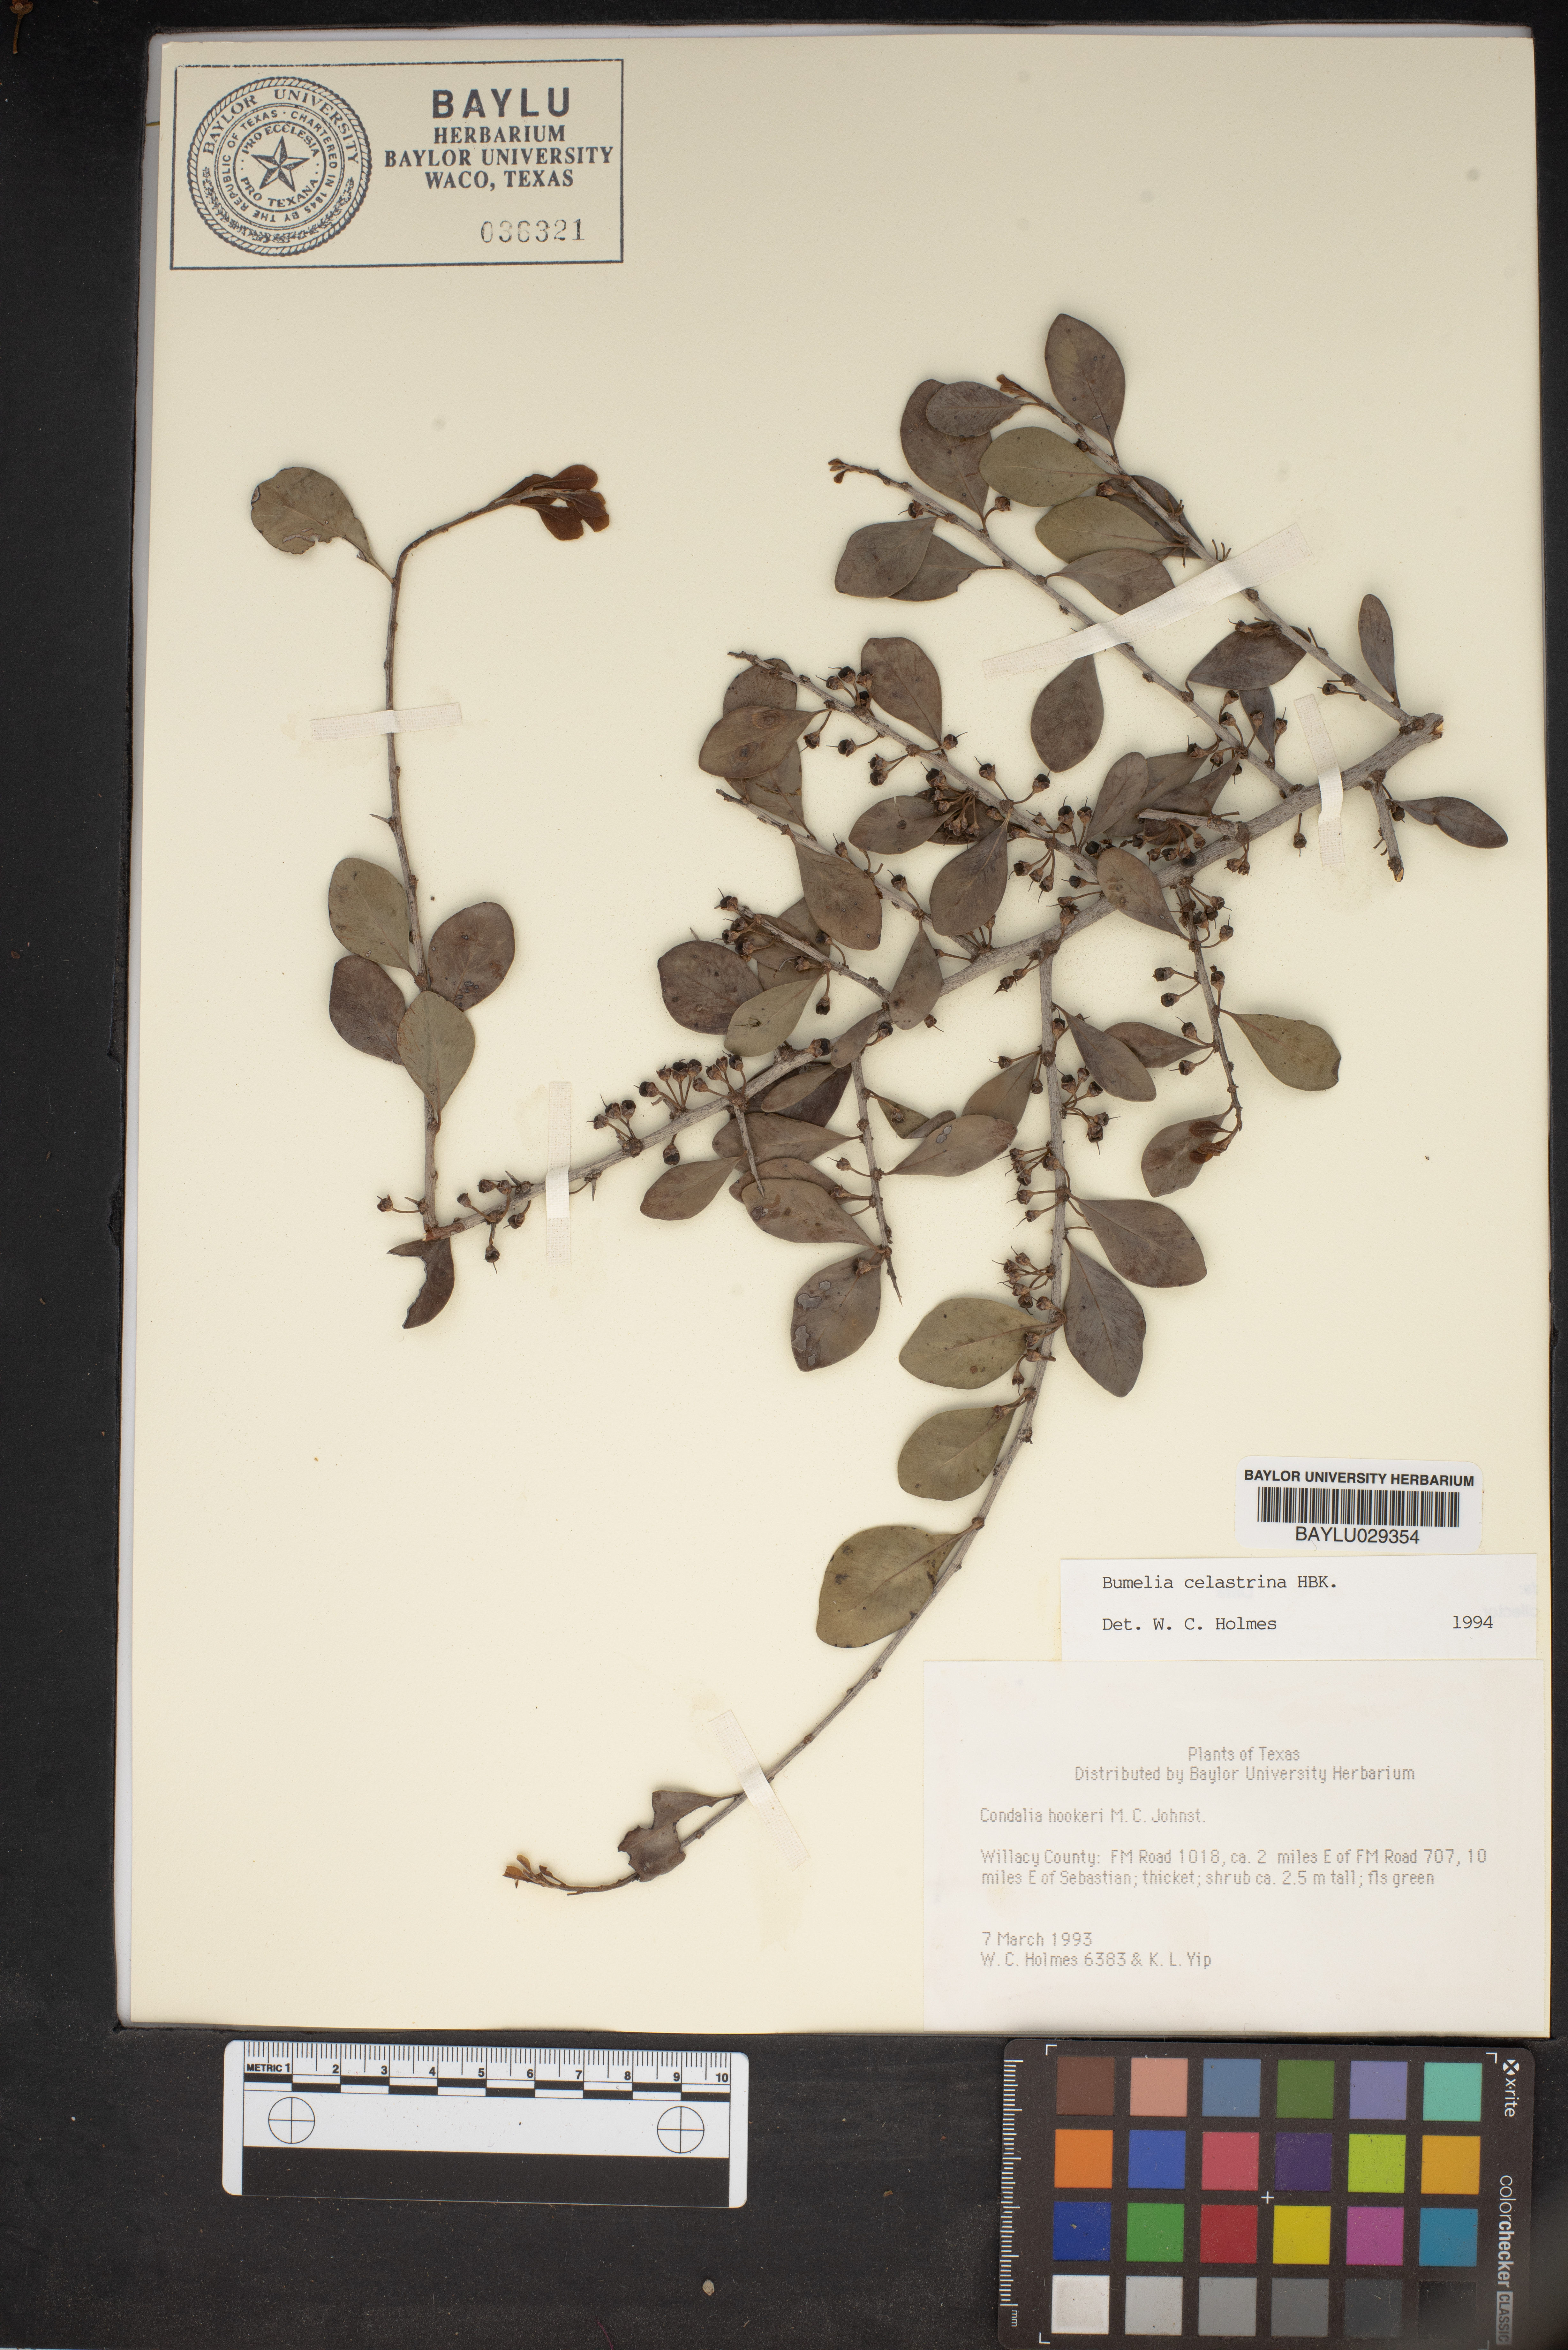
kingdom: Plantae
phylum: Tracheophyta
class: Magnoliopsida
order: Ericales
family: Sapotaceae
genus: Sideroxylon
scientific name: Sideroxylon celastrinum
